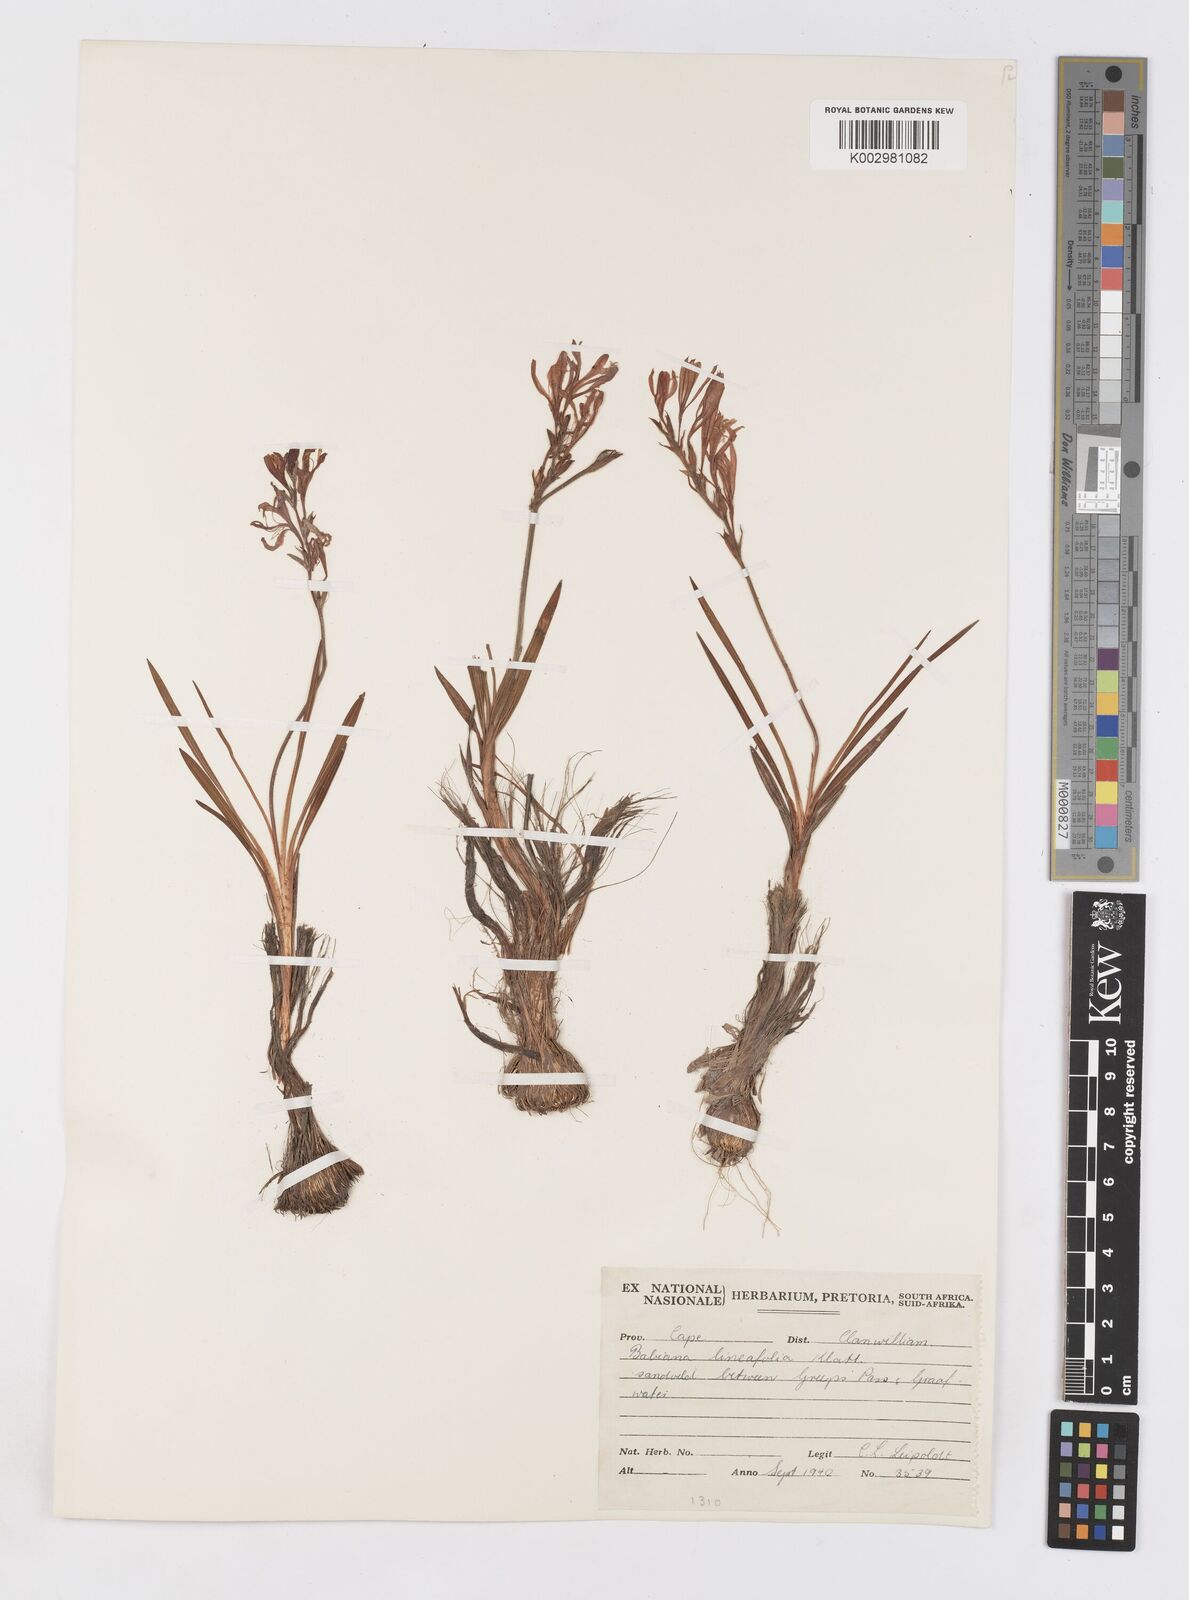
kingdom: Plantae
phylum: Tracheophyta
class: Liliopsida
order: Asparagales
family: Iridaceae
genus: Babiana
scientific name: Babiana lineolata
